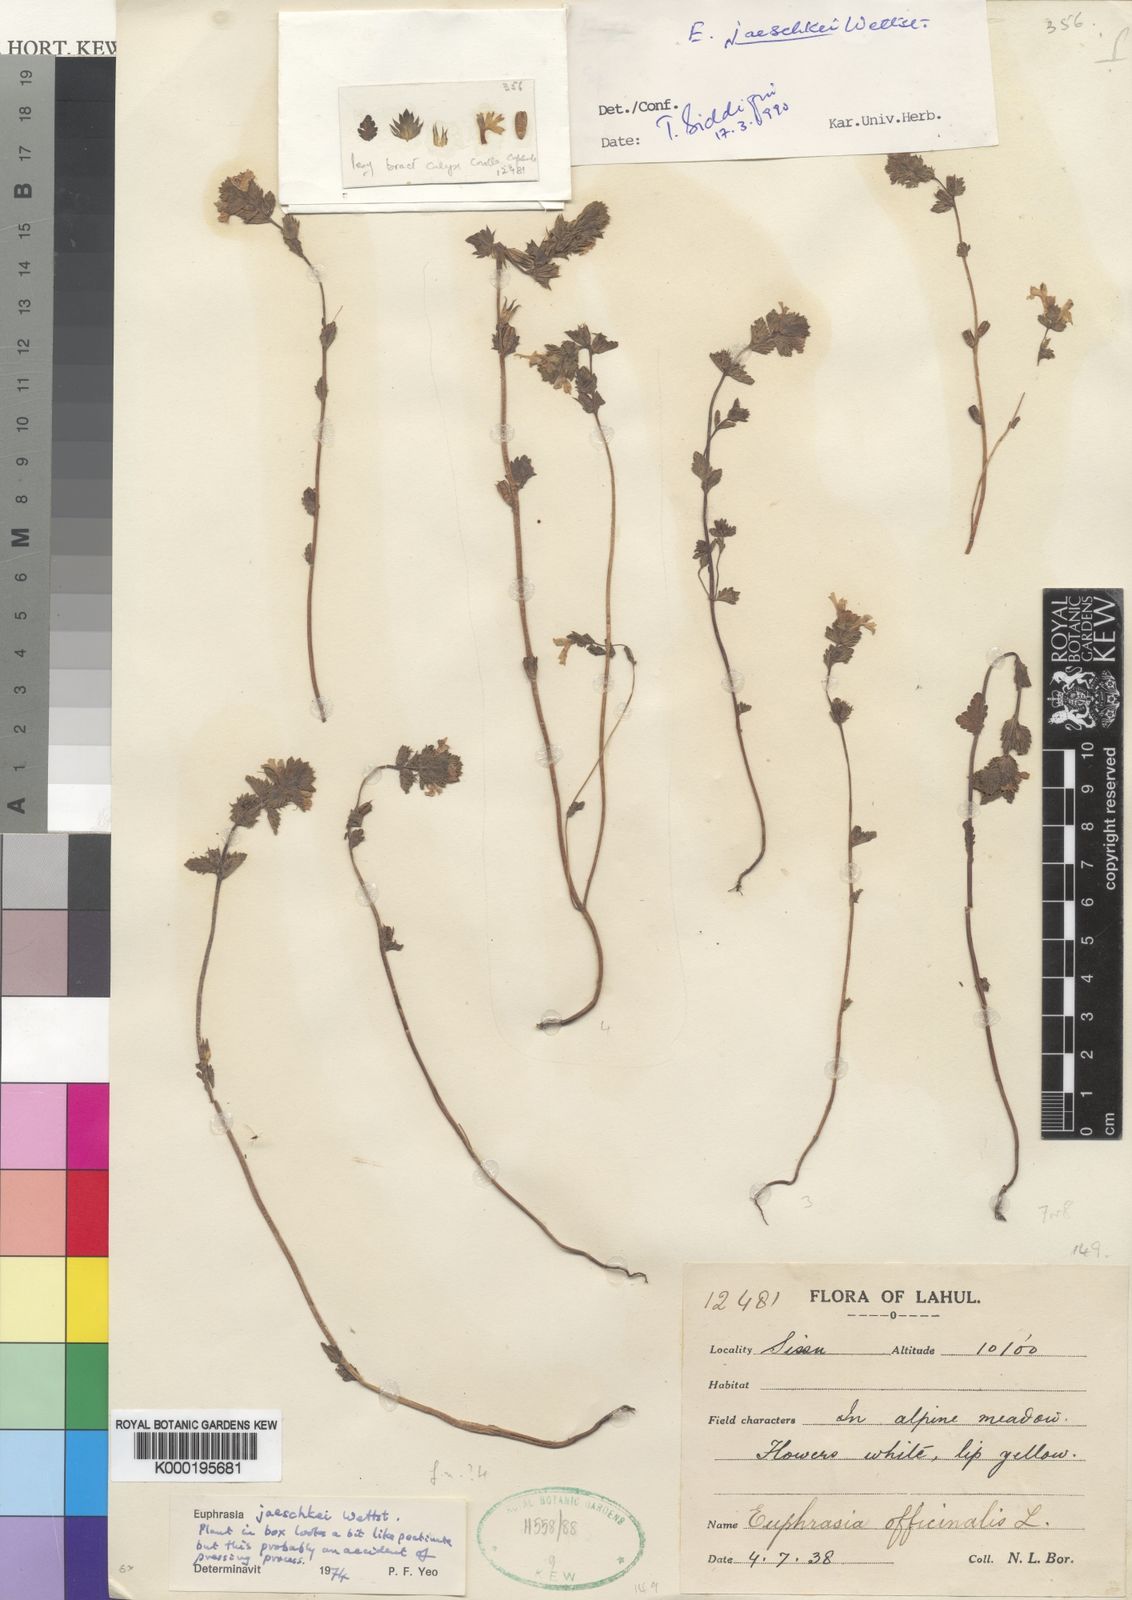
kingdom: Plantae
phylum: Tracheophyta
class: Magnoliopsida
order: Lamiales
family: Orobanchaceae
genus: Euphrasia
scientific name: Euphrasia jaeschkei
